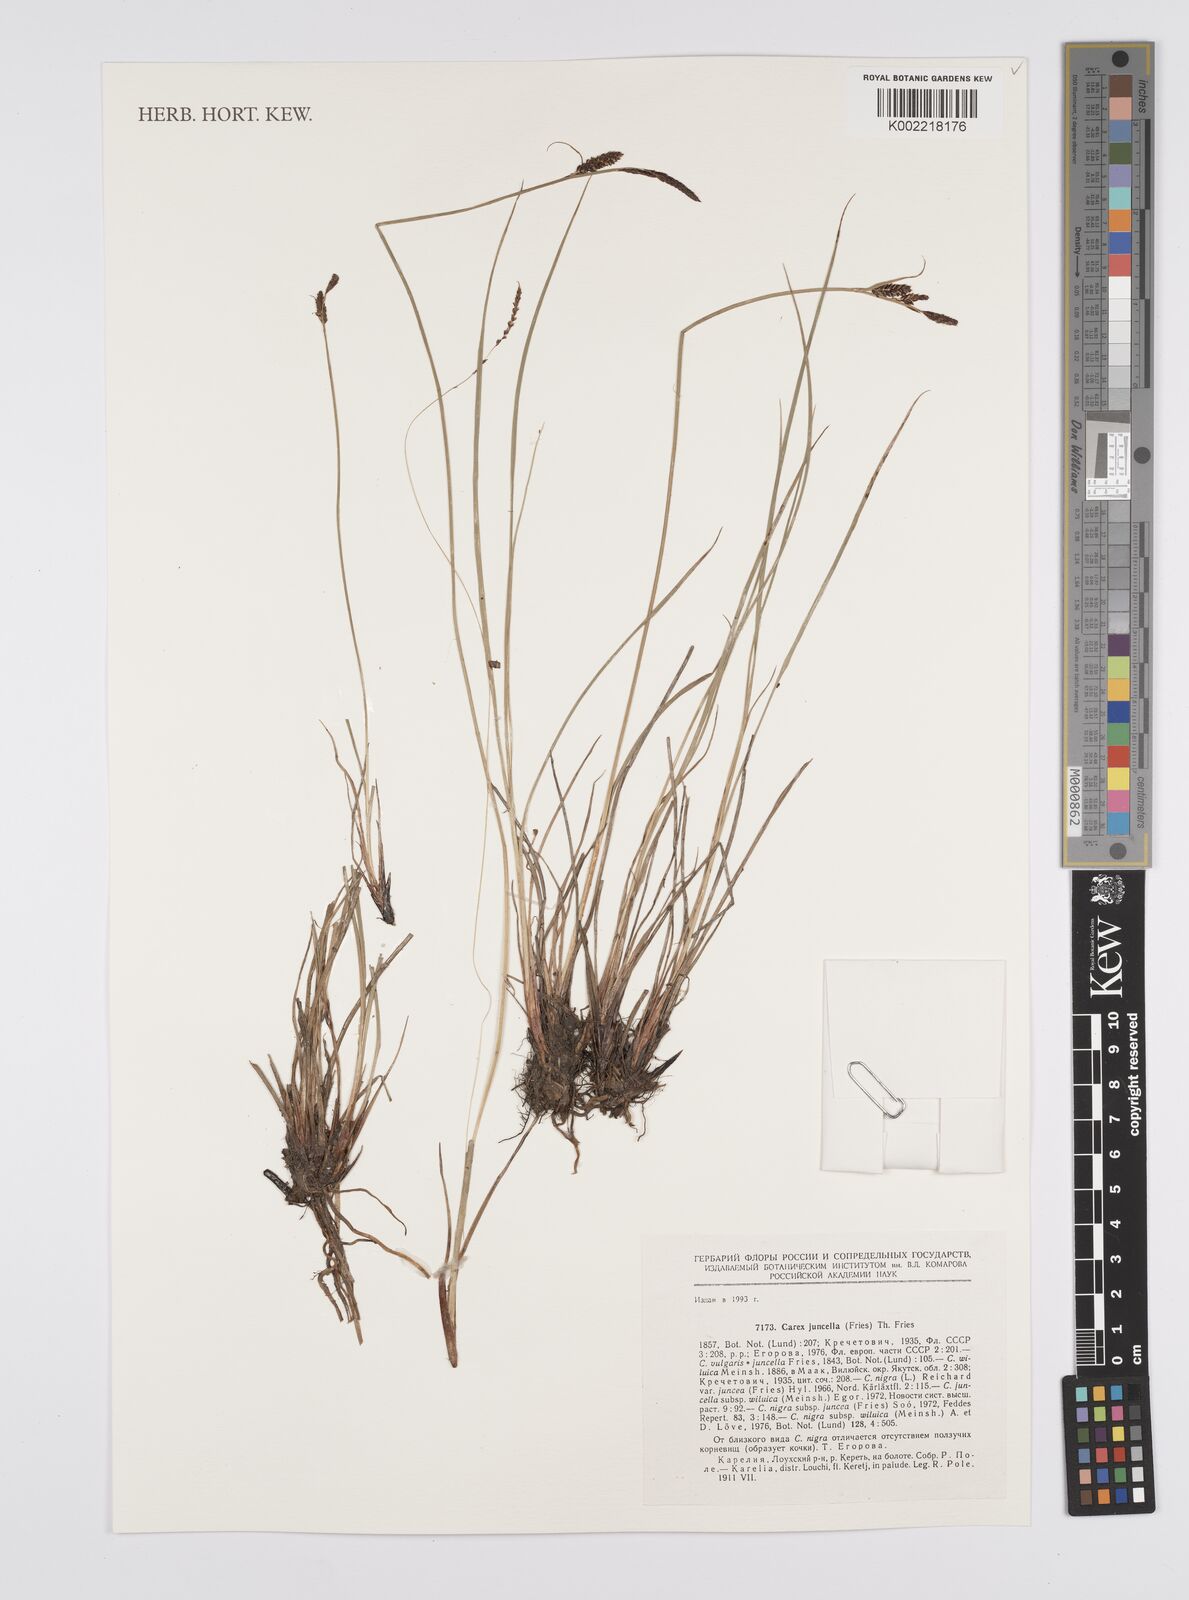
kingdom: Plantae
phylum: Tracheophyta
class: Liliopsida
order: Poales
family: Cyperaceae
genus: Carex
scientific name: Carex nigra
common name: Common sedge
